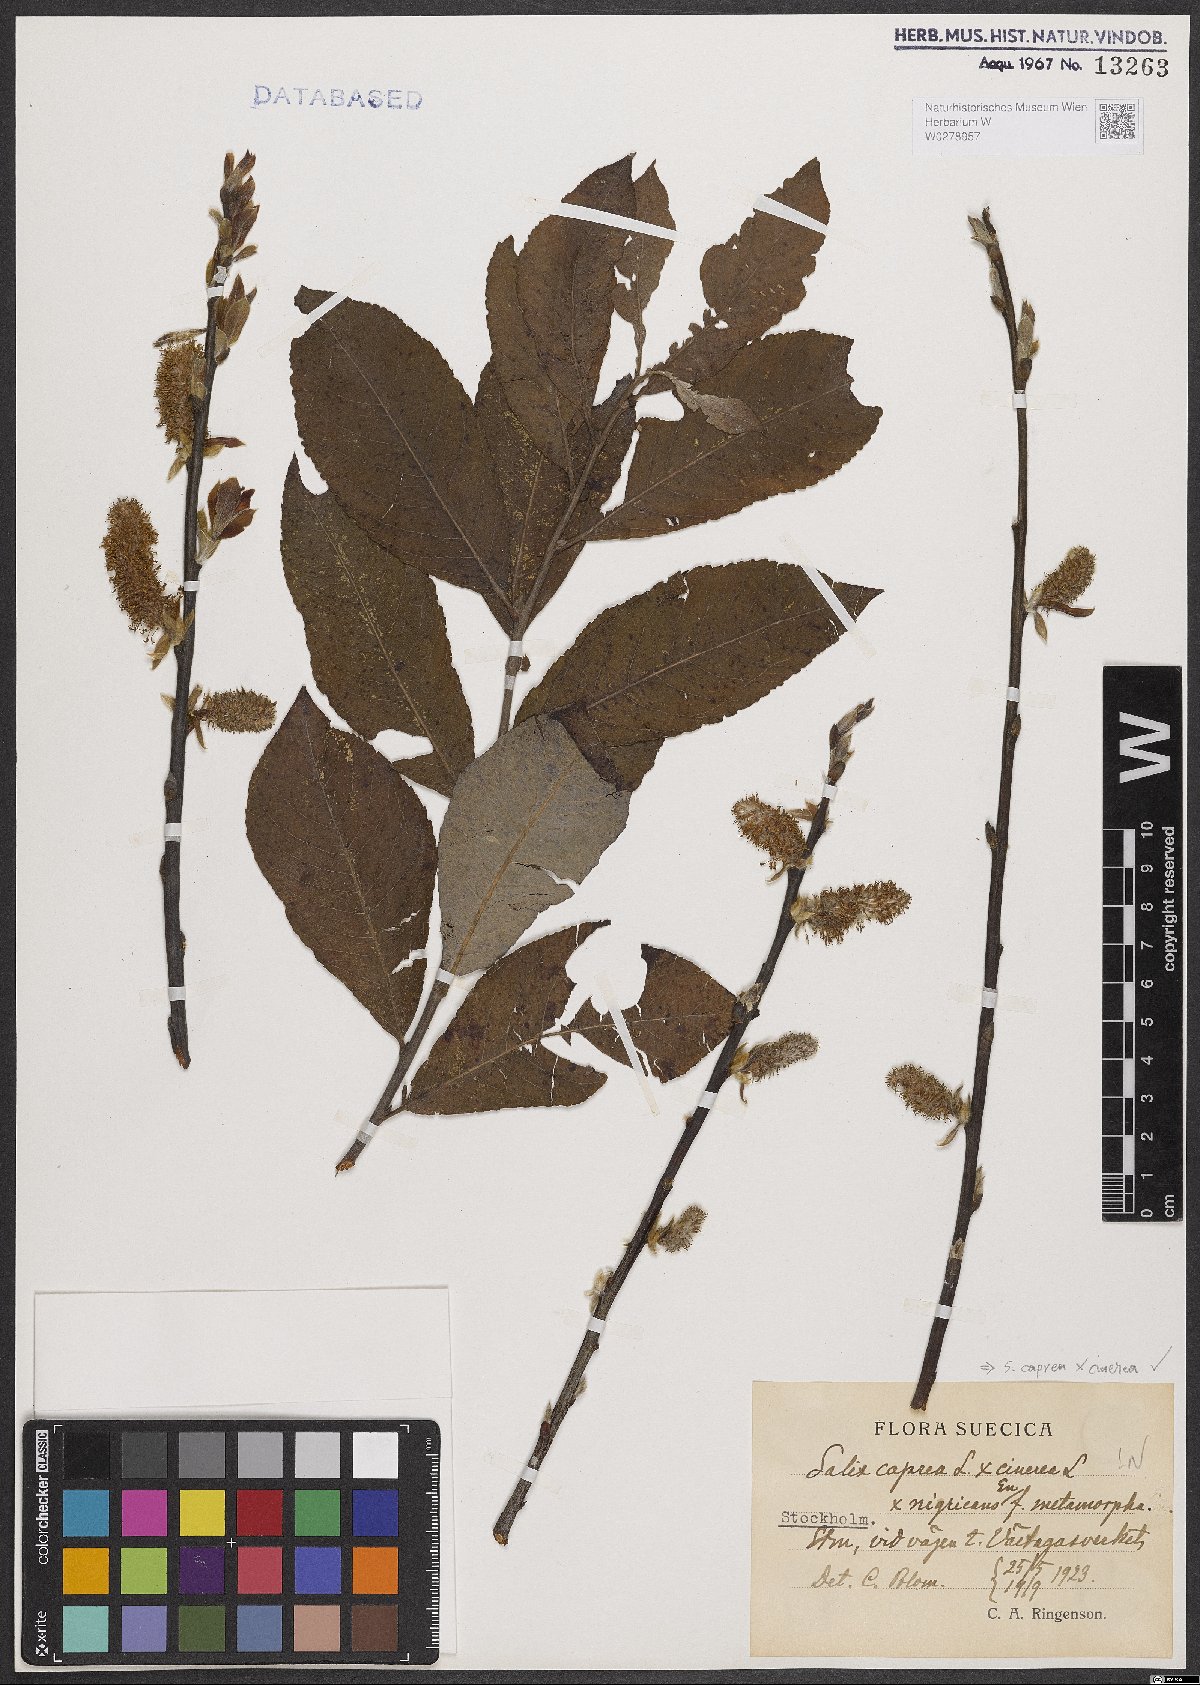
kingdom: Plantae
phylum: Tracheophyta
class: Magnoliopsida
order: Malpighiales
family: Salicaceae
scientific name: Salicaceae
